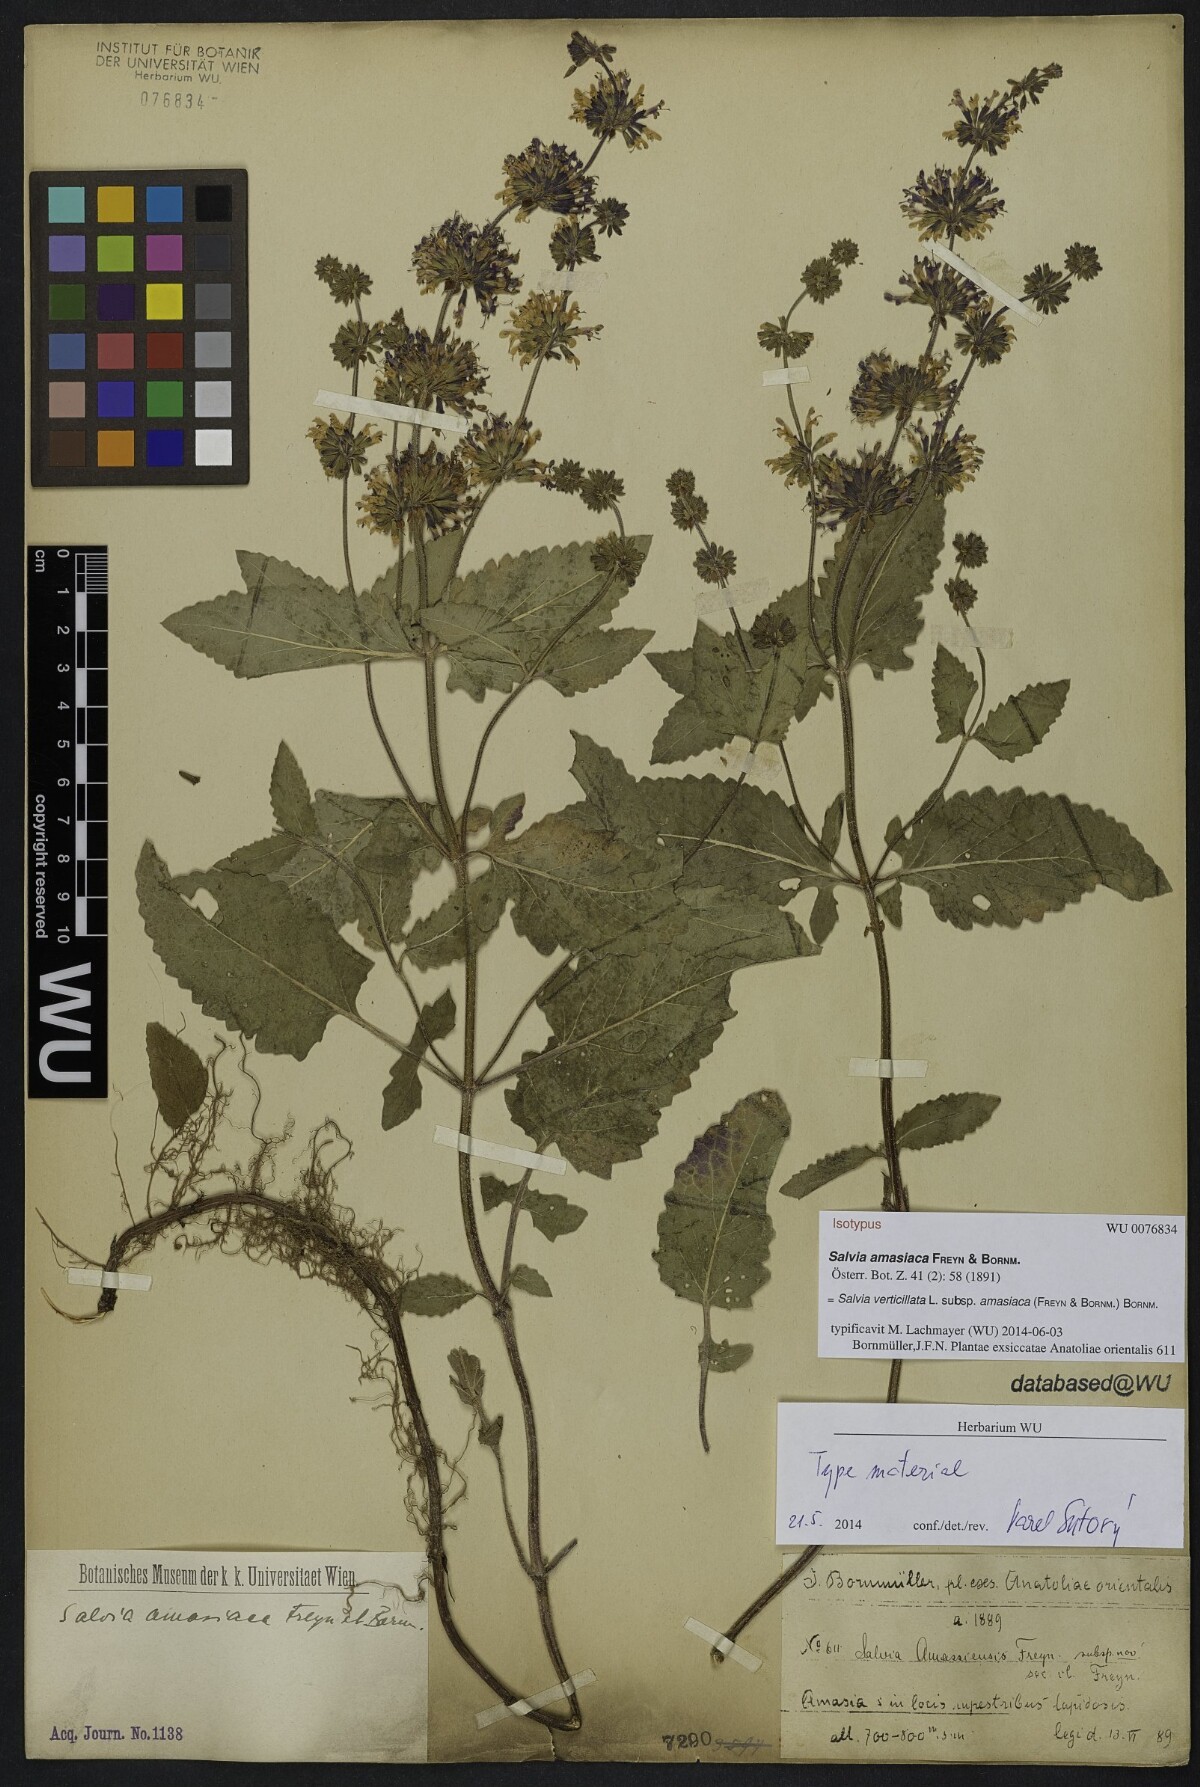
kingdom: Plantae
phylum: Tracheophyta
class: Magnoliopsida
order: Lamiales
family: Lamiaceae
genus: Salvia
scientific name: Salvia verticillata
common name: Whorled clary
